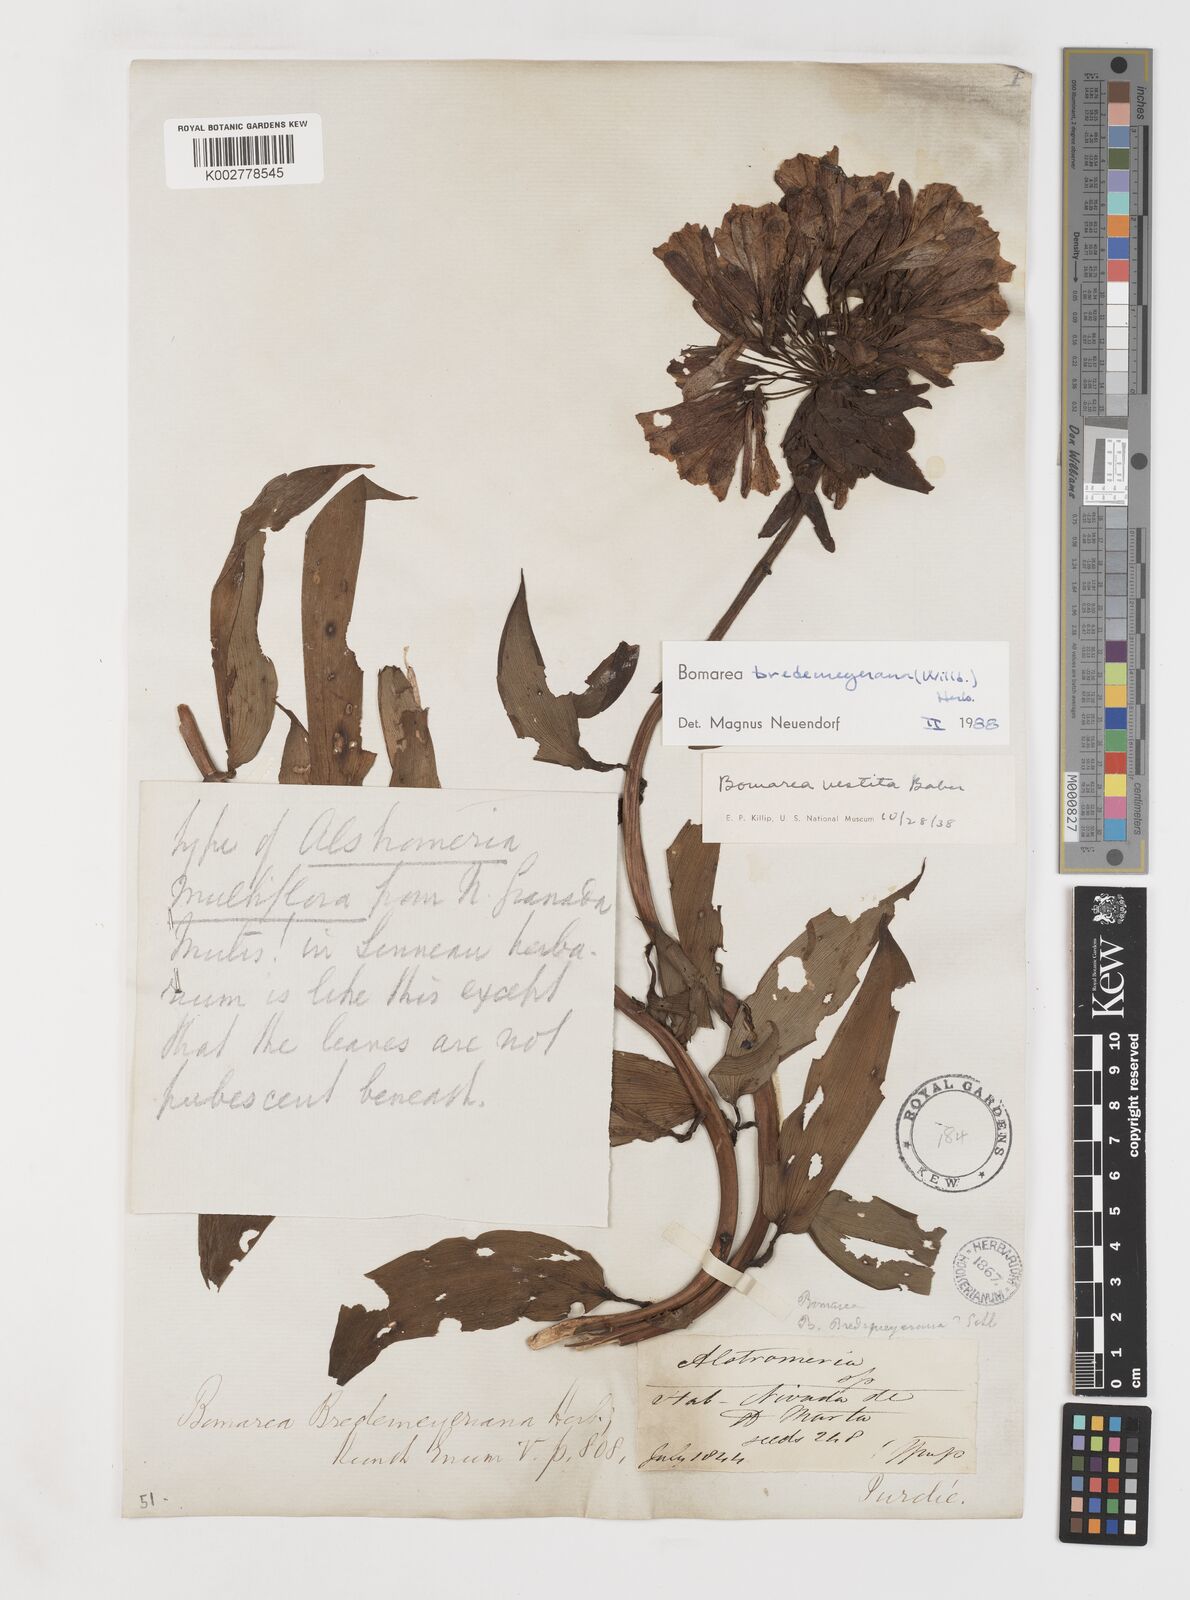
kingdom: Plantae
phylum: Tracheophyta
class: Liliopsida
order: Liliales
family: Alstroemeriaceae
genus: Bomarea
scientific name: Bomarea bredemeyeriana
